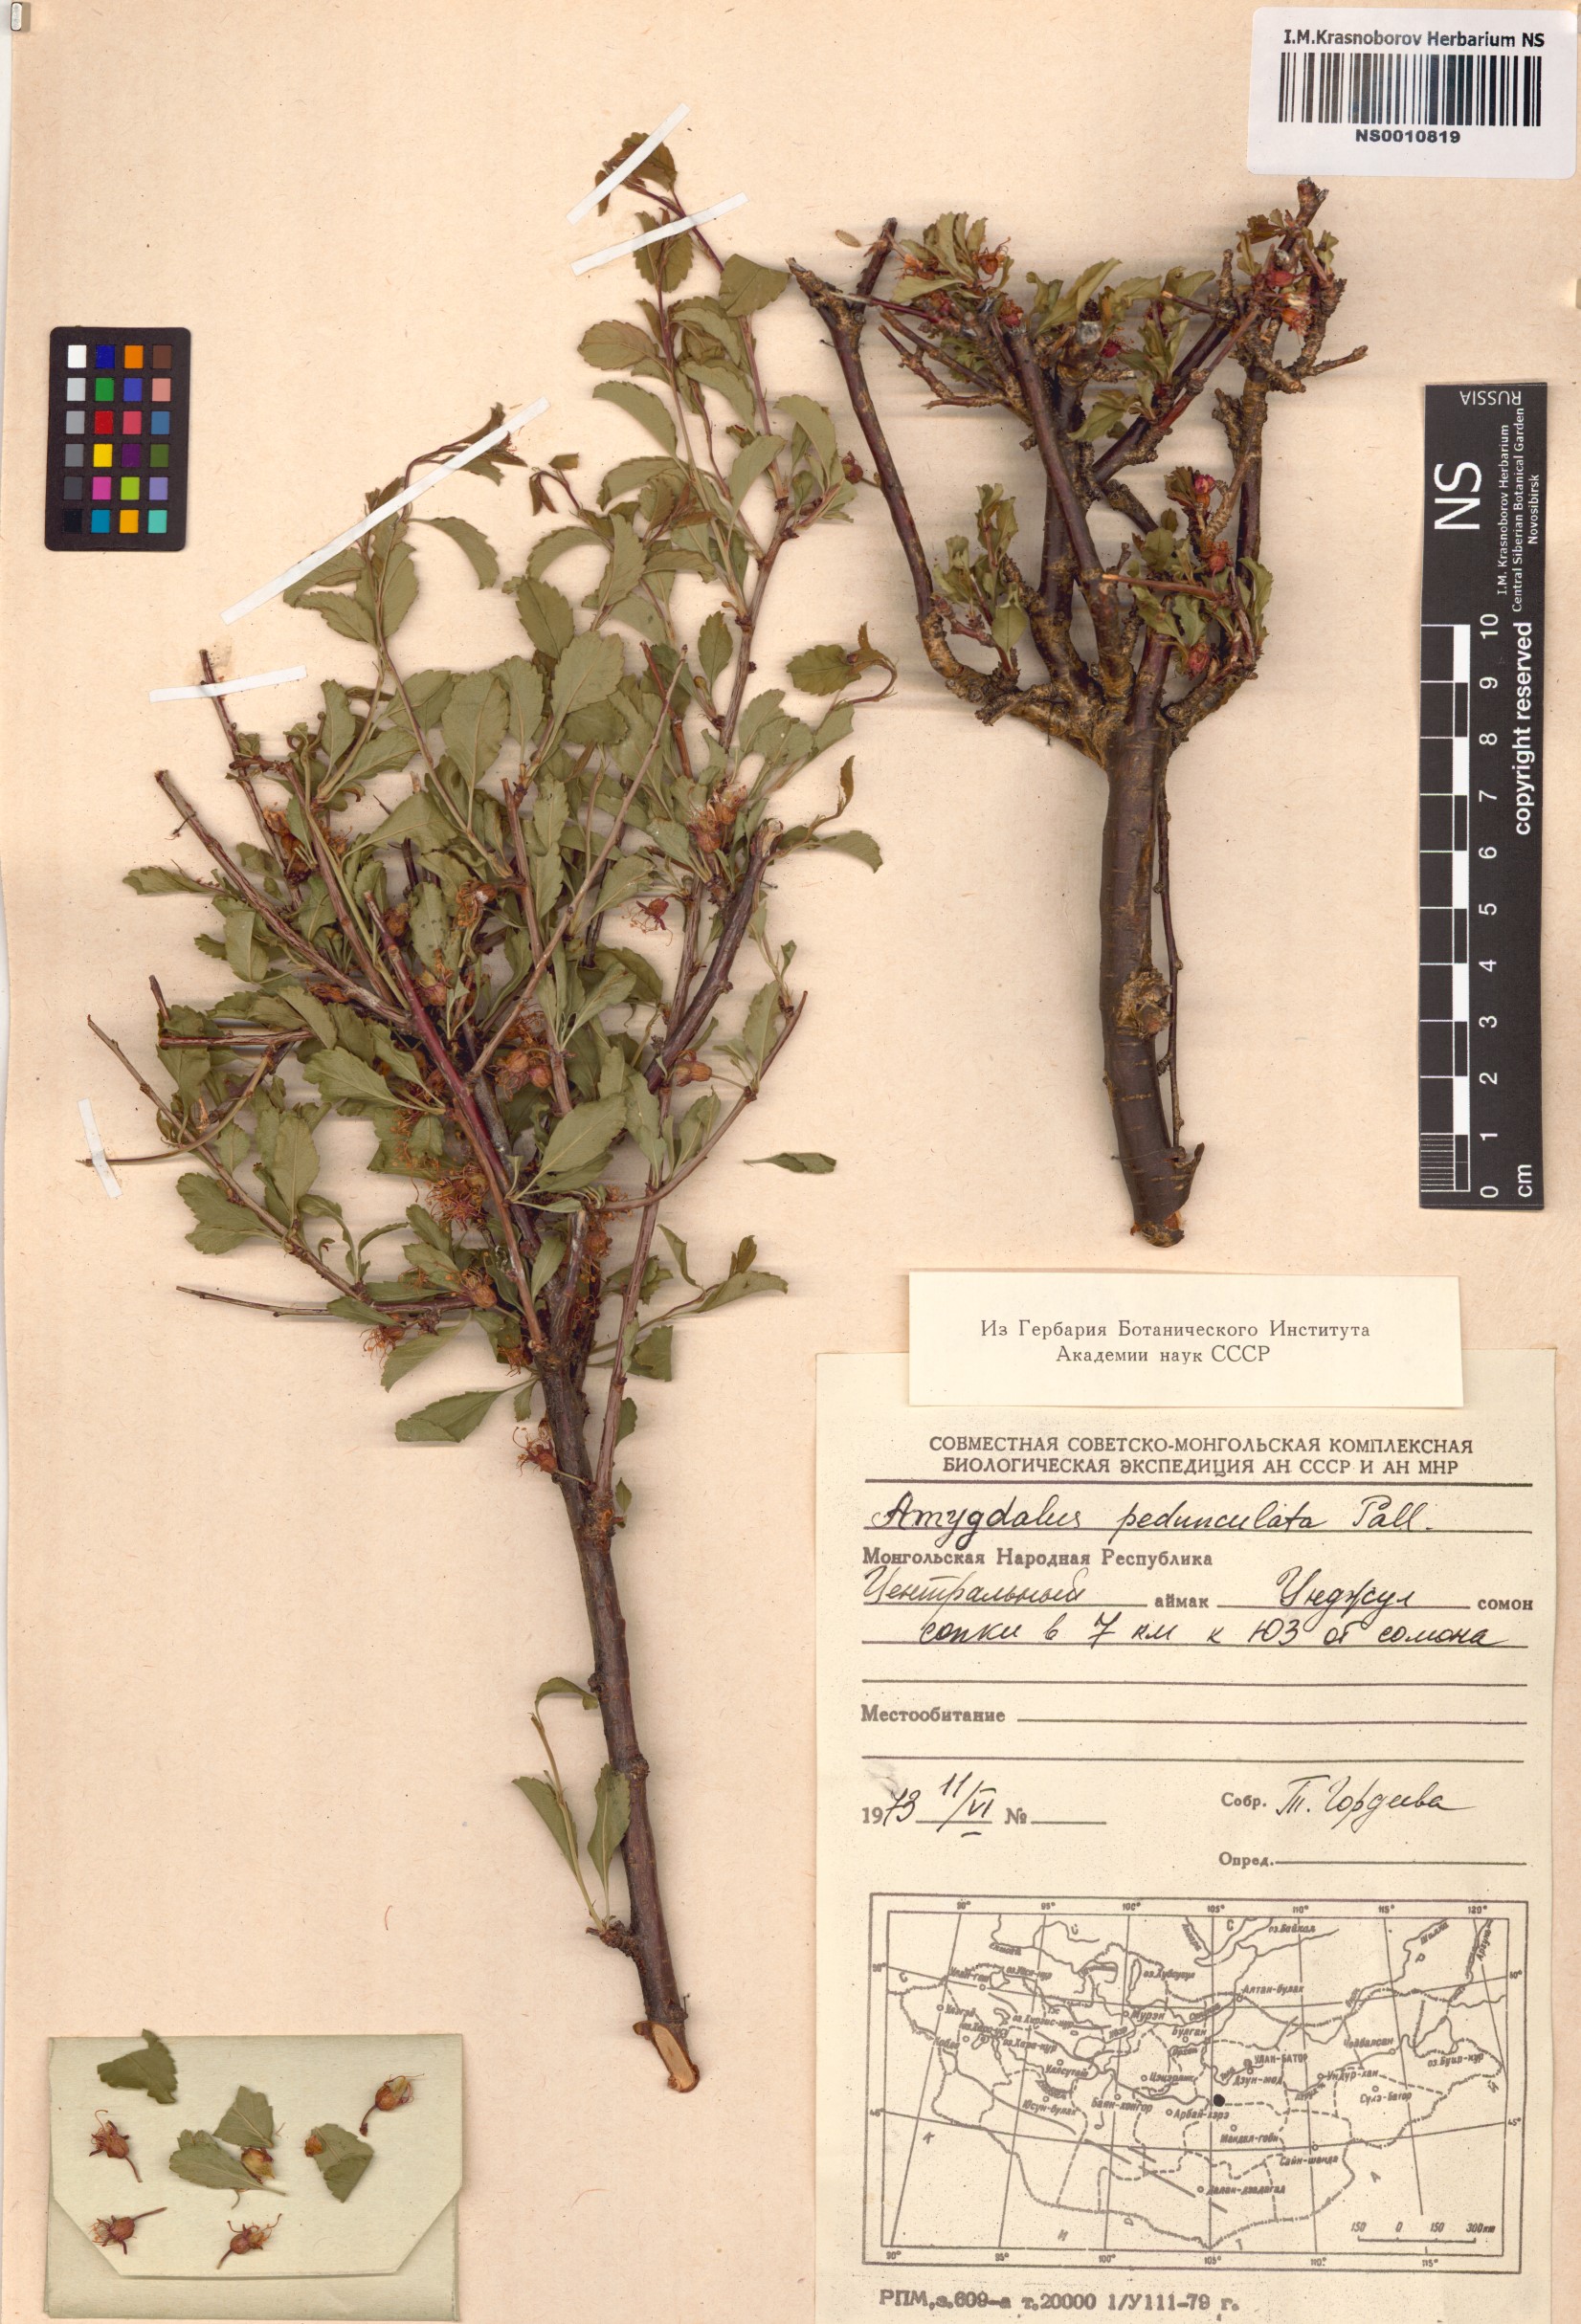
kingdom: Plantae
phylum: Tracheophyta
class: Magnoliopsida
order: Rosales
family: Rosaceae
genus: Prunus
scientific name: Prunus pedunculata
